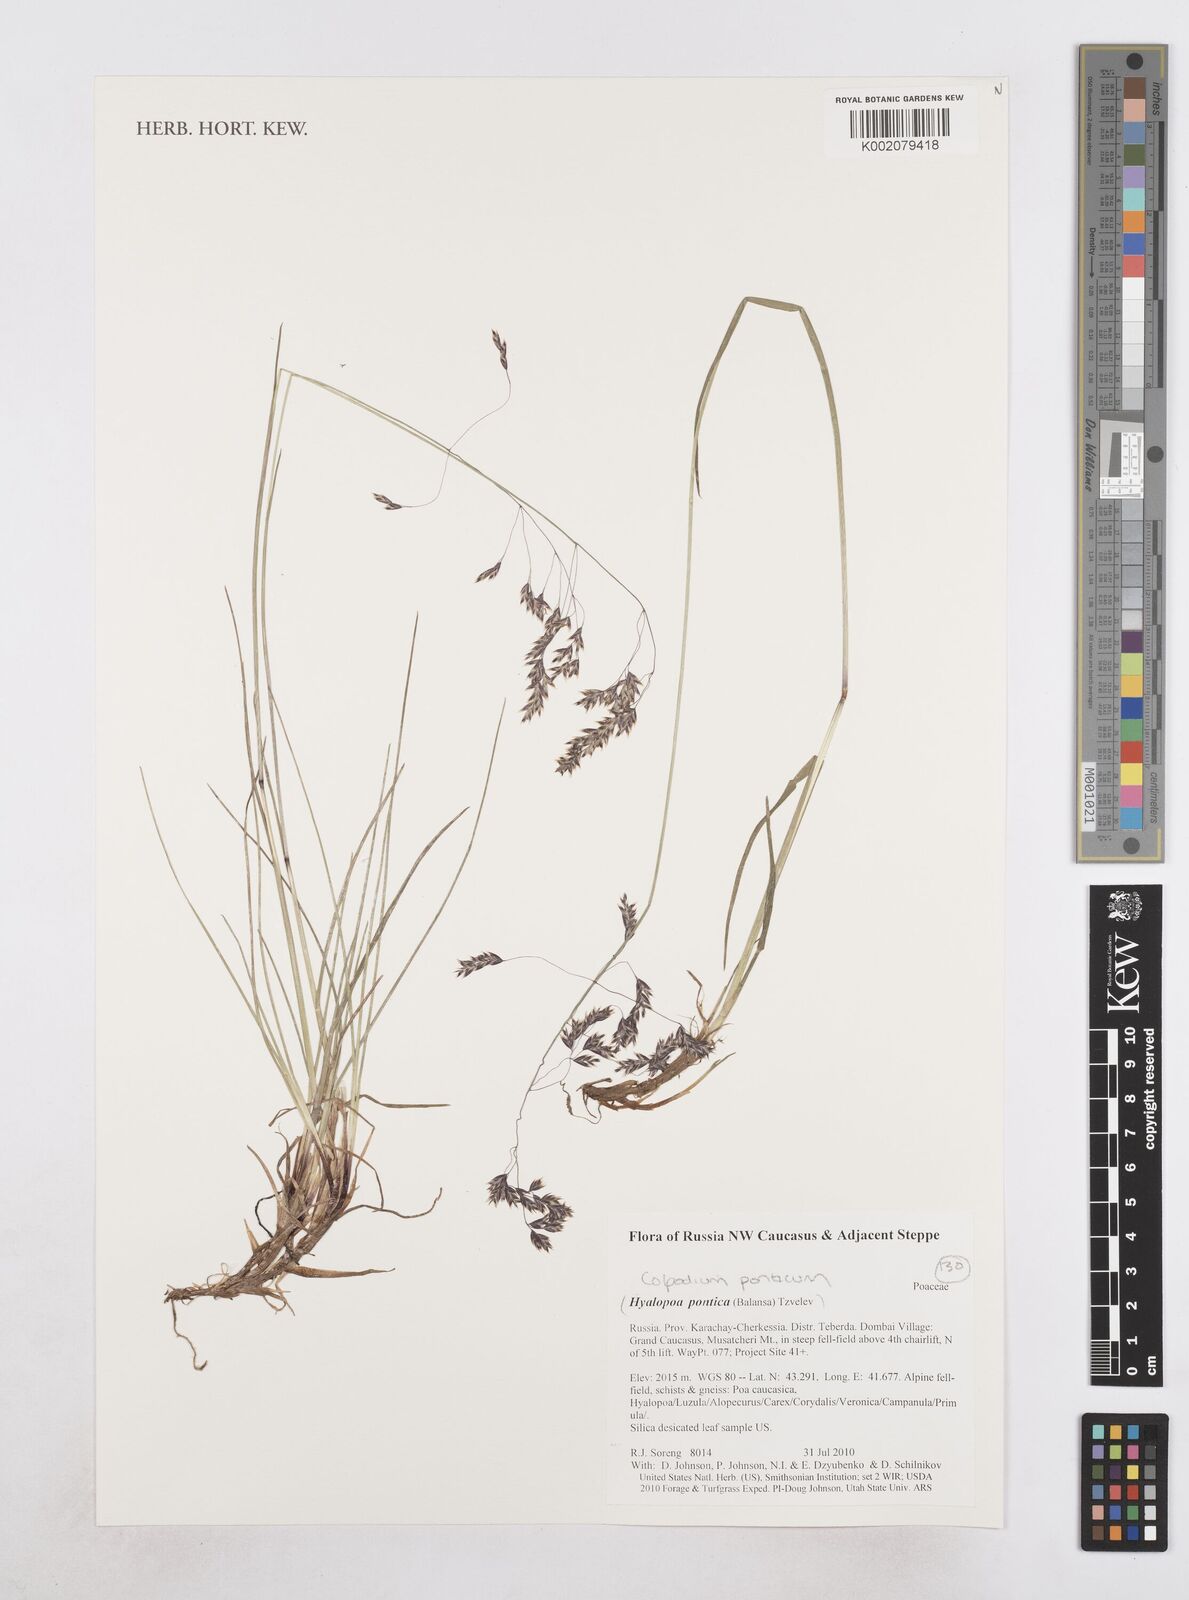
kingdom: Plantae
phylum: Tracheophyta
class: Liliopsida
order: Poales
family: Poaceae
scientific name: Poaceae
